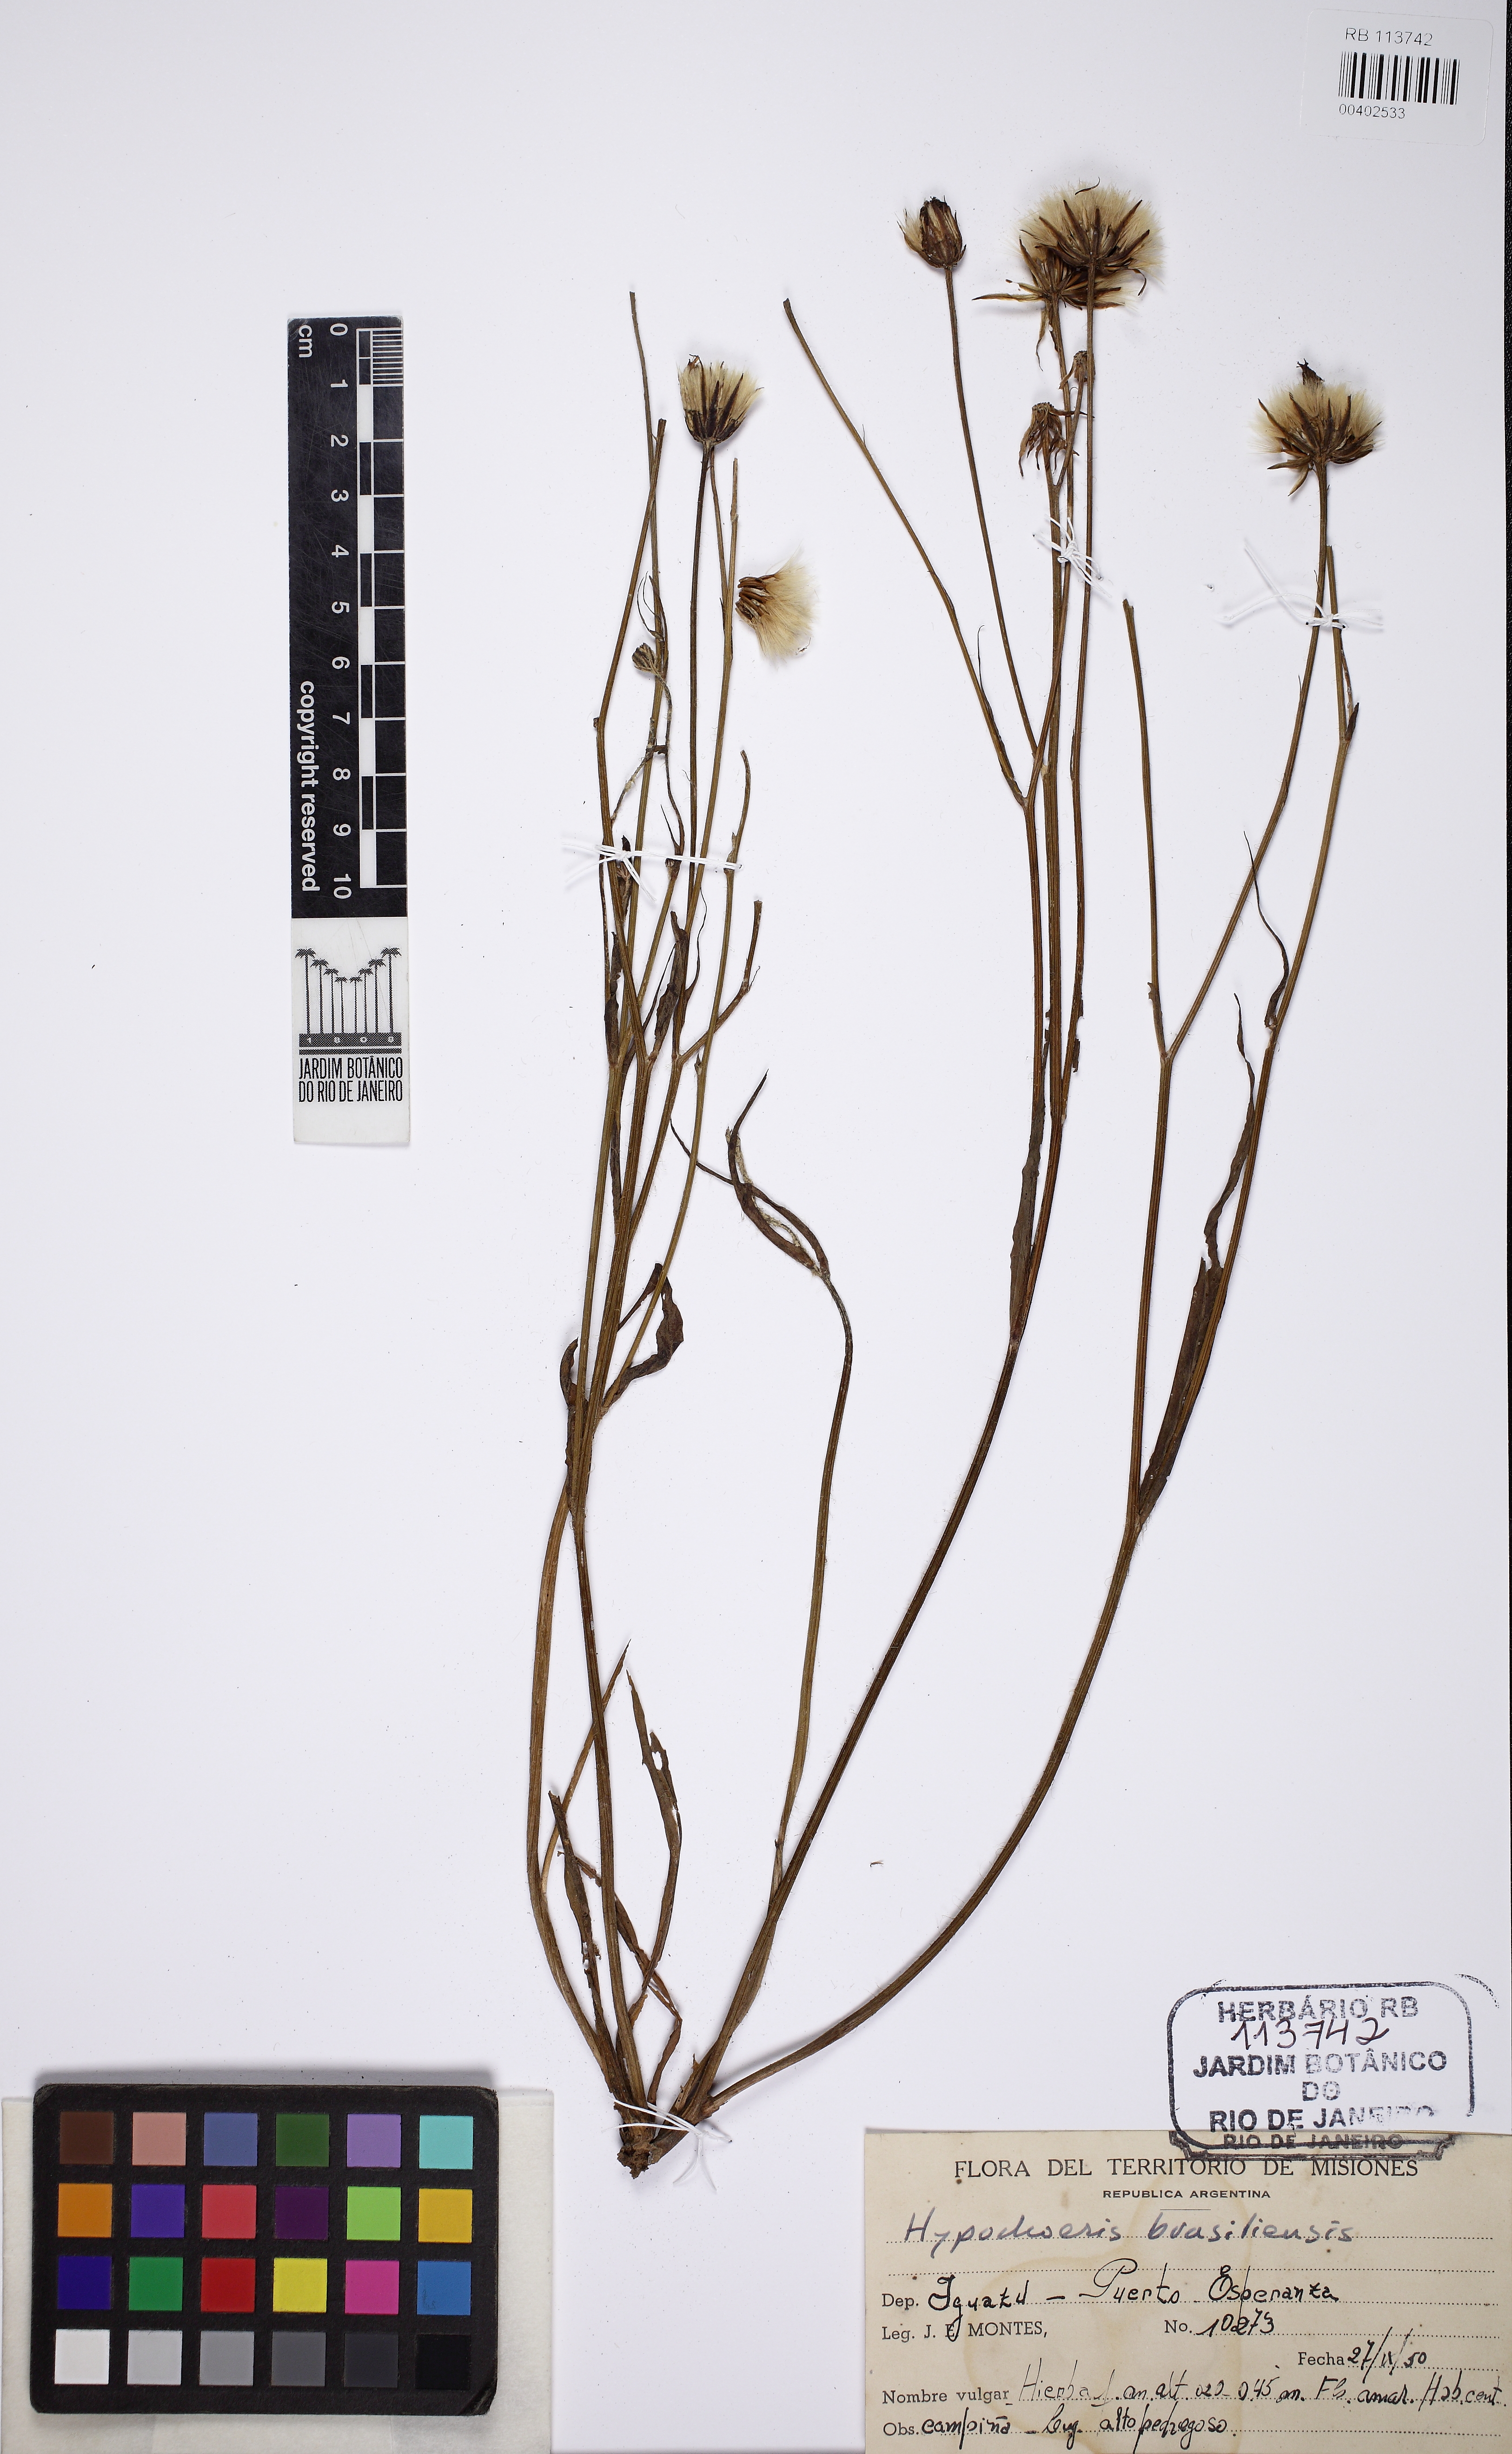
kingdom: Plantae
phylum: Tracheophyta
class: Magnoliopsida
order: Asterales
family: Asteraceae
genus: Hypochaeris
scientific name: Hypochaeris chillensis
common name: Brazilian cat's ear
